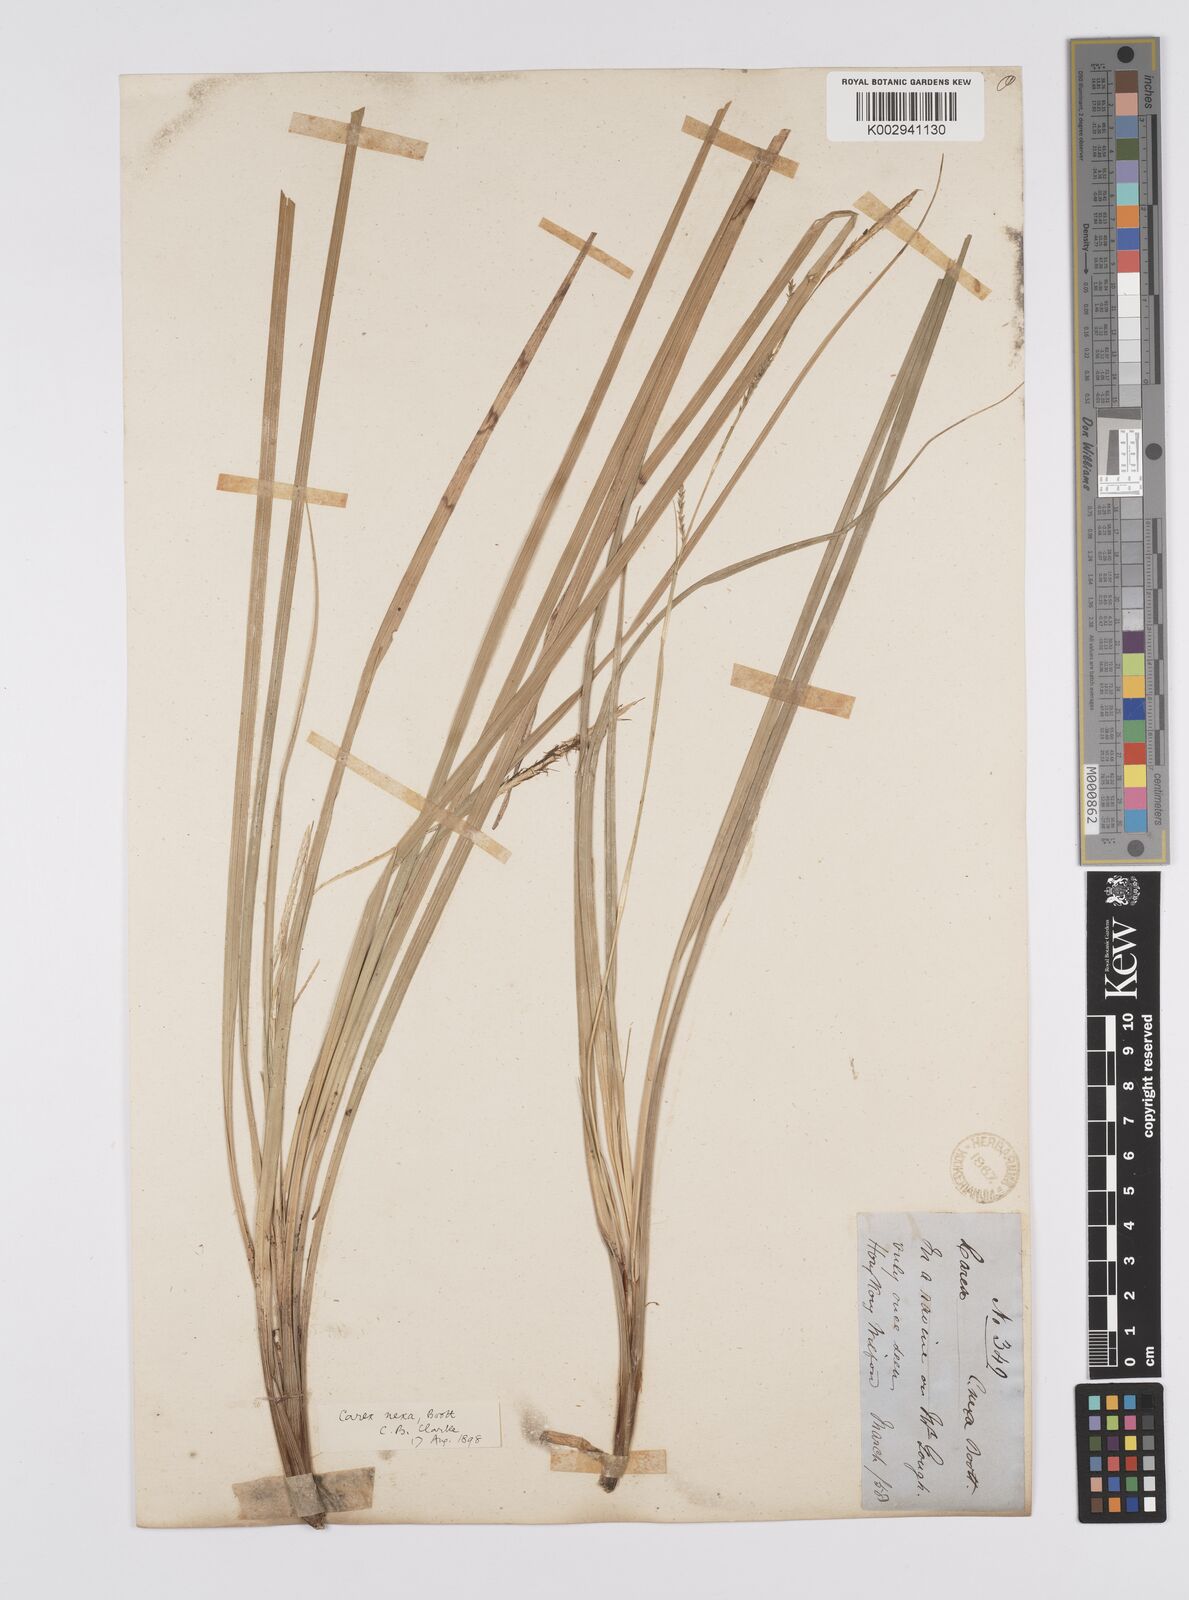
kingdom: Plantae
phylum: Tracheophyta
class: Liliopsida
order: Poales
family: Cyperaceae
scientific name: Cyperaceae
